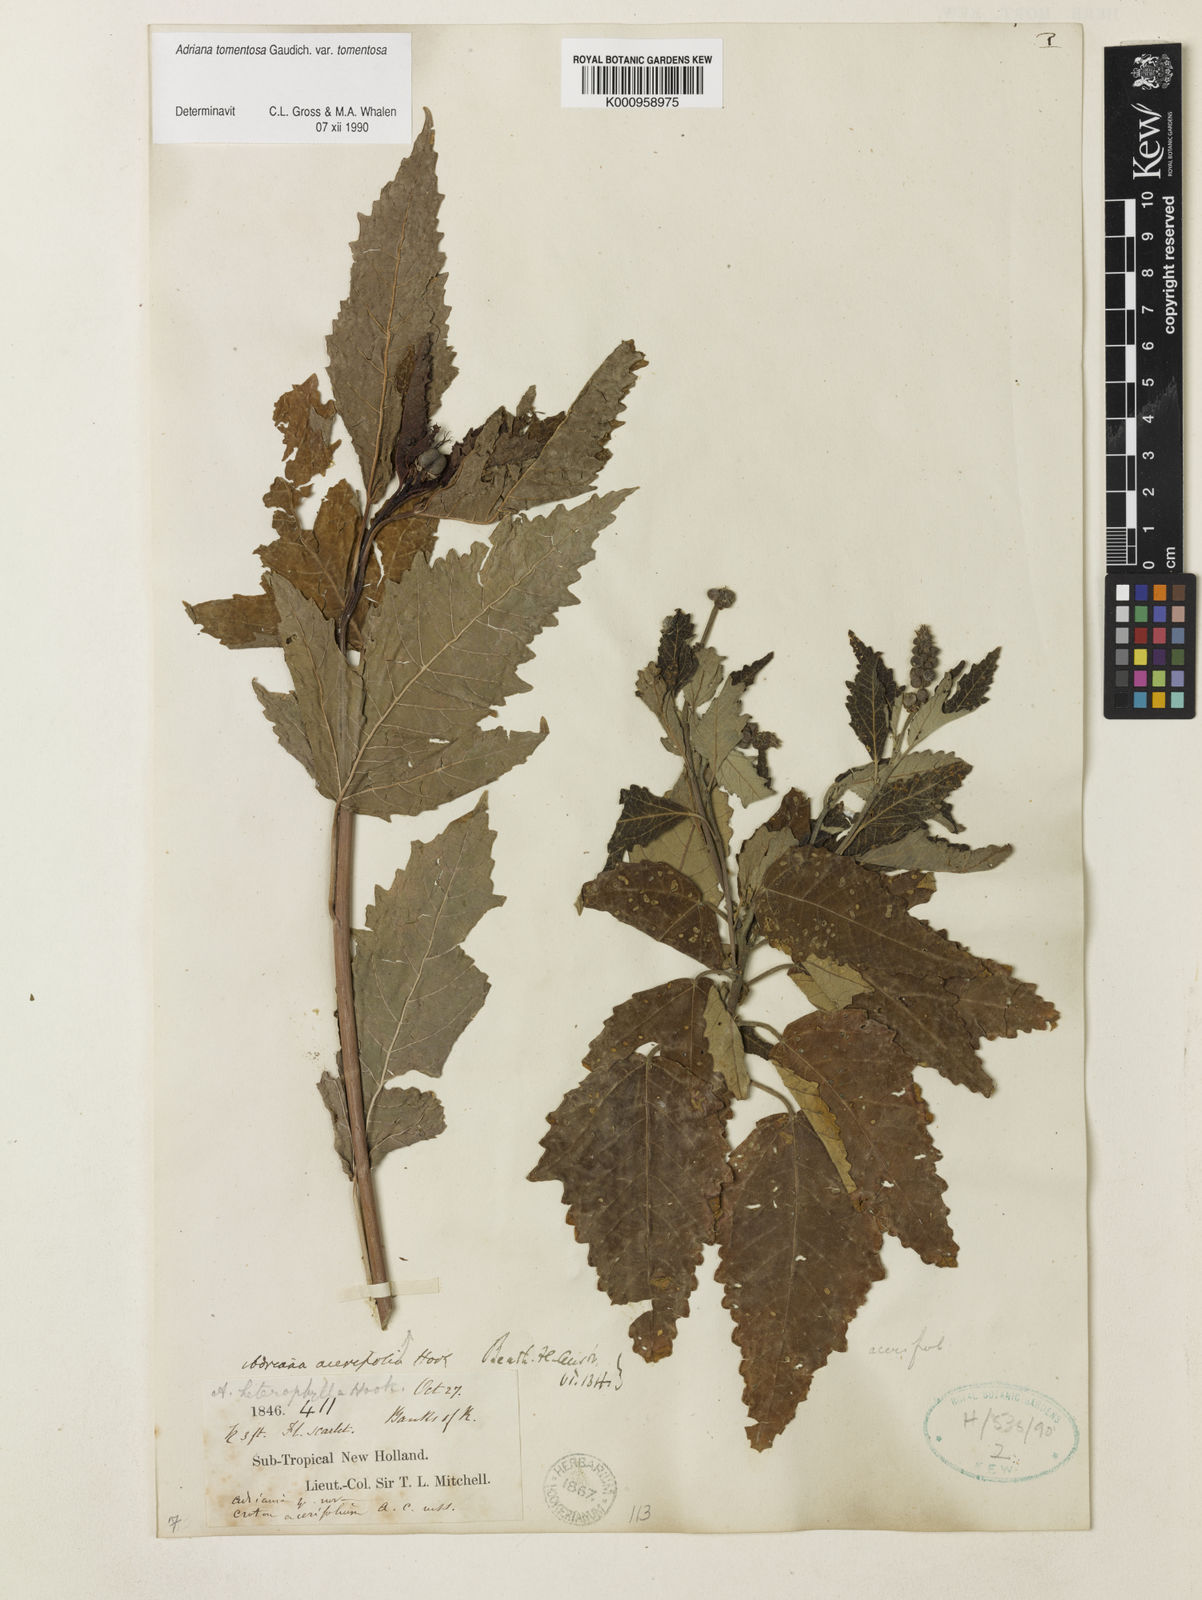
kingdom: Plantae
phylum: Tracheophyta
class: Magnoliopsida
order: Malpighiales
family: Euphorbiaceae
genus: Adriana
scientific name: Adriana tomentosa
